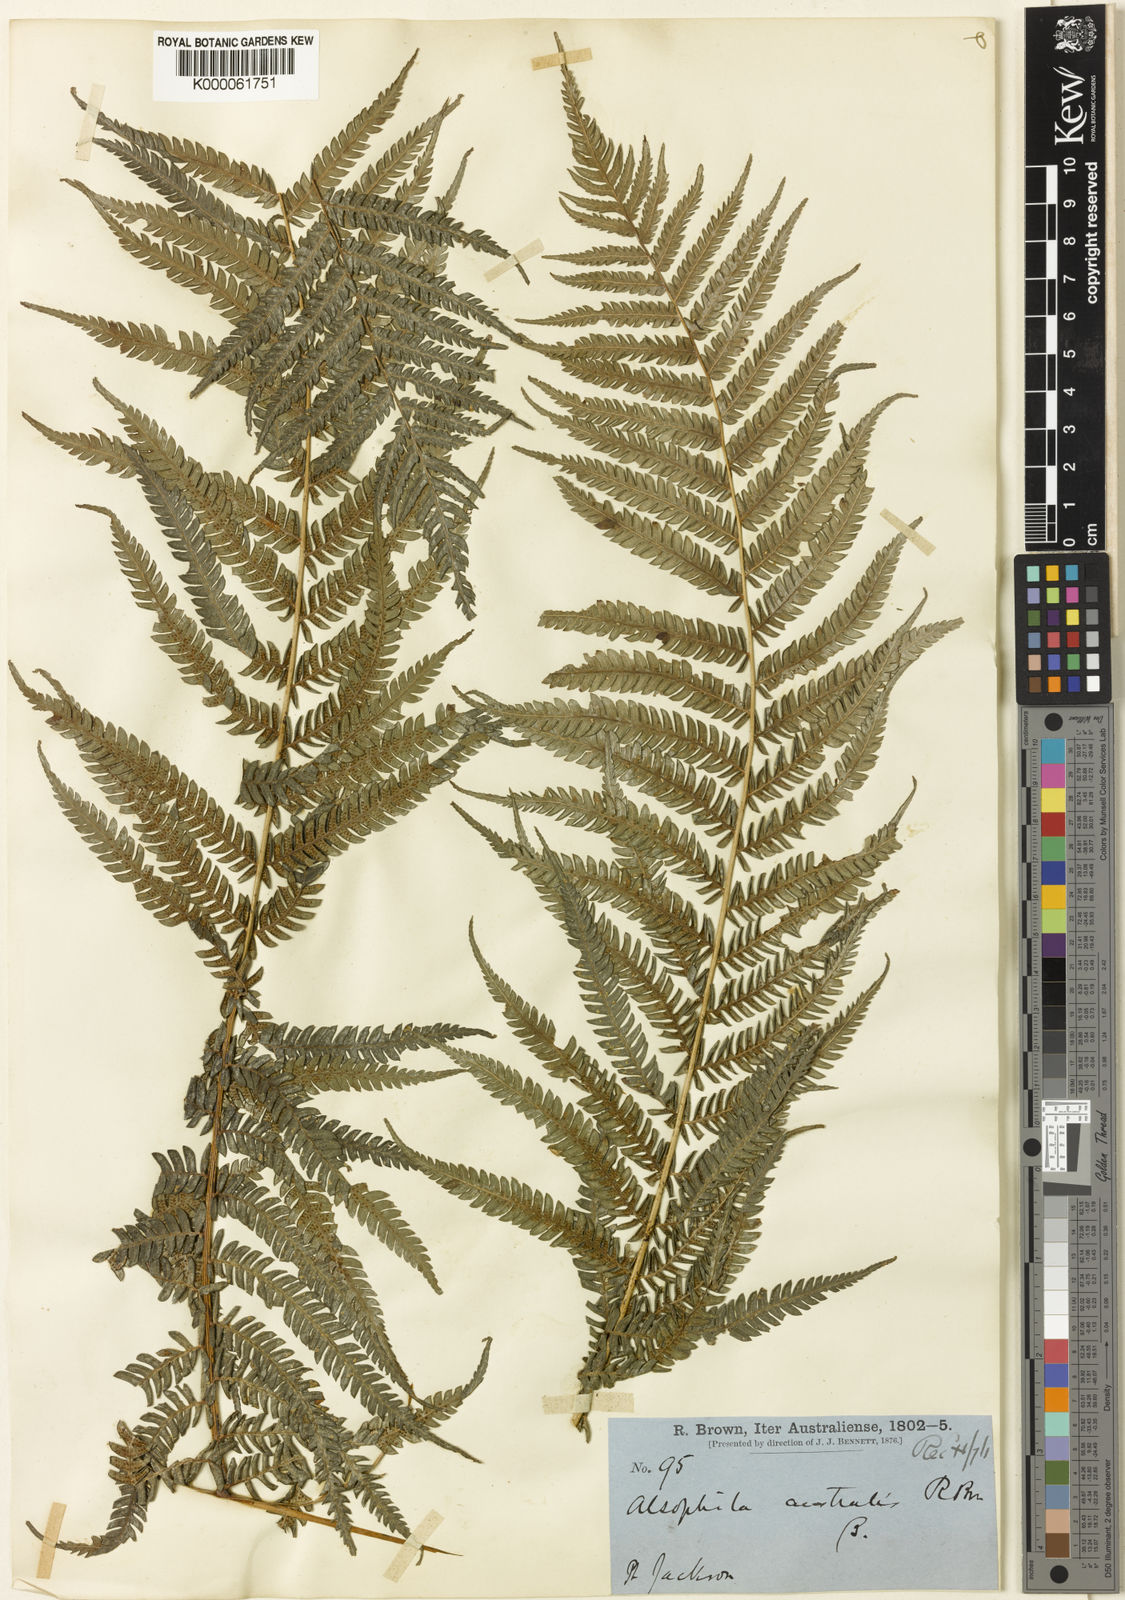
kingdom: Plantae
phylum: Tracheophyta
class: Polypodiopsida
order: Cyatheales
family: Cyatheaceae
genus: Alsophila
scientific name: Alsophila australis
